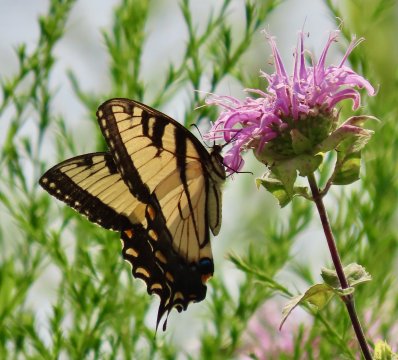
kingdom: Animalia
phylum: Arthropoda
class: Insecta
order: Lepidoptera
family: Papilionidae
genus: Pterourus
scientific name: Pterourus glaucus
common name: Eastern Tiger Swallowtail
